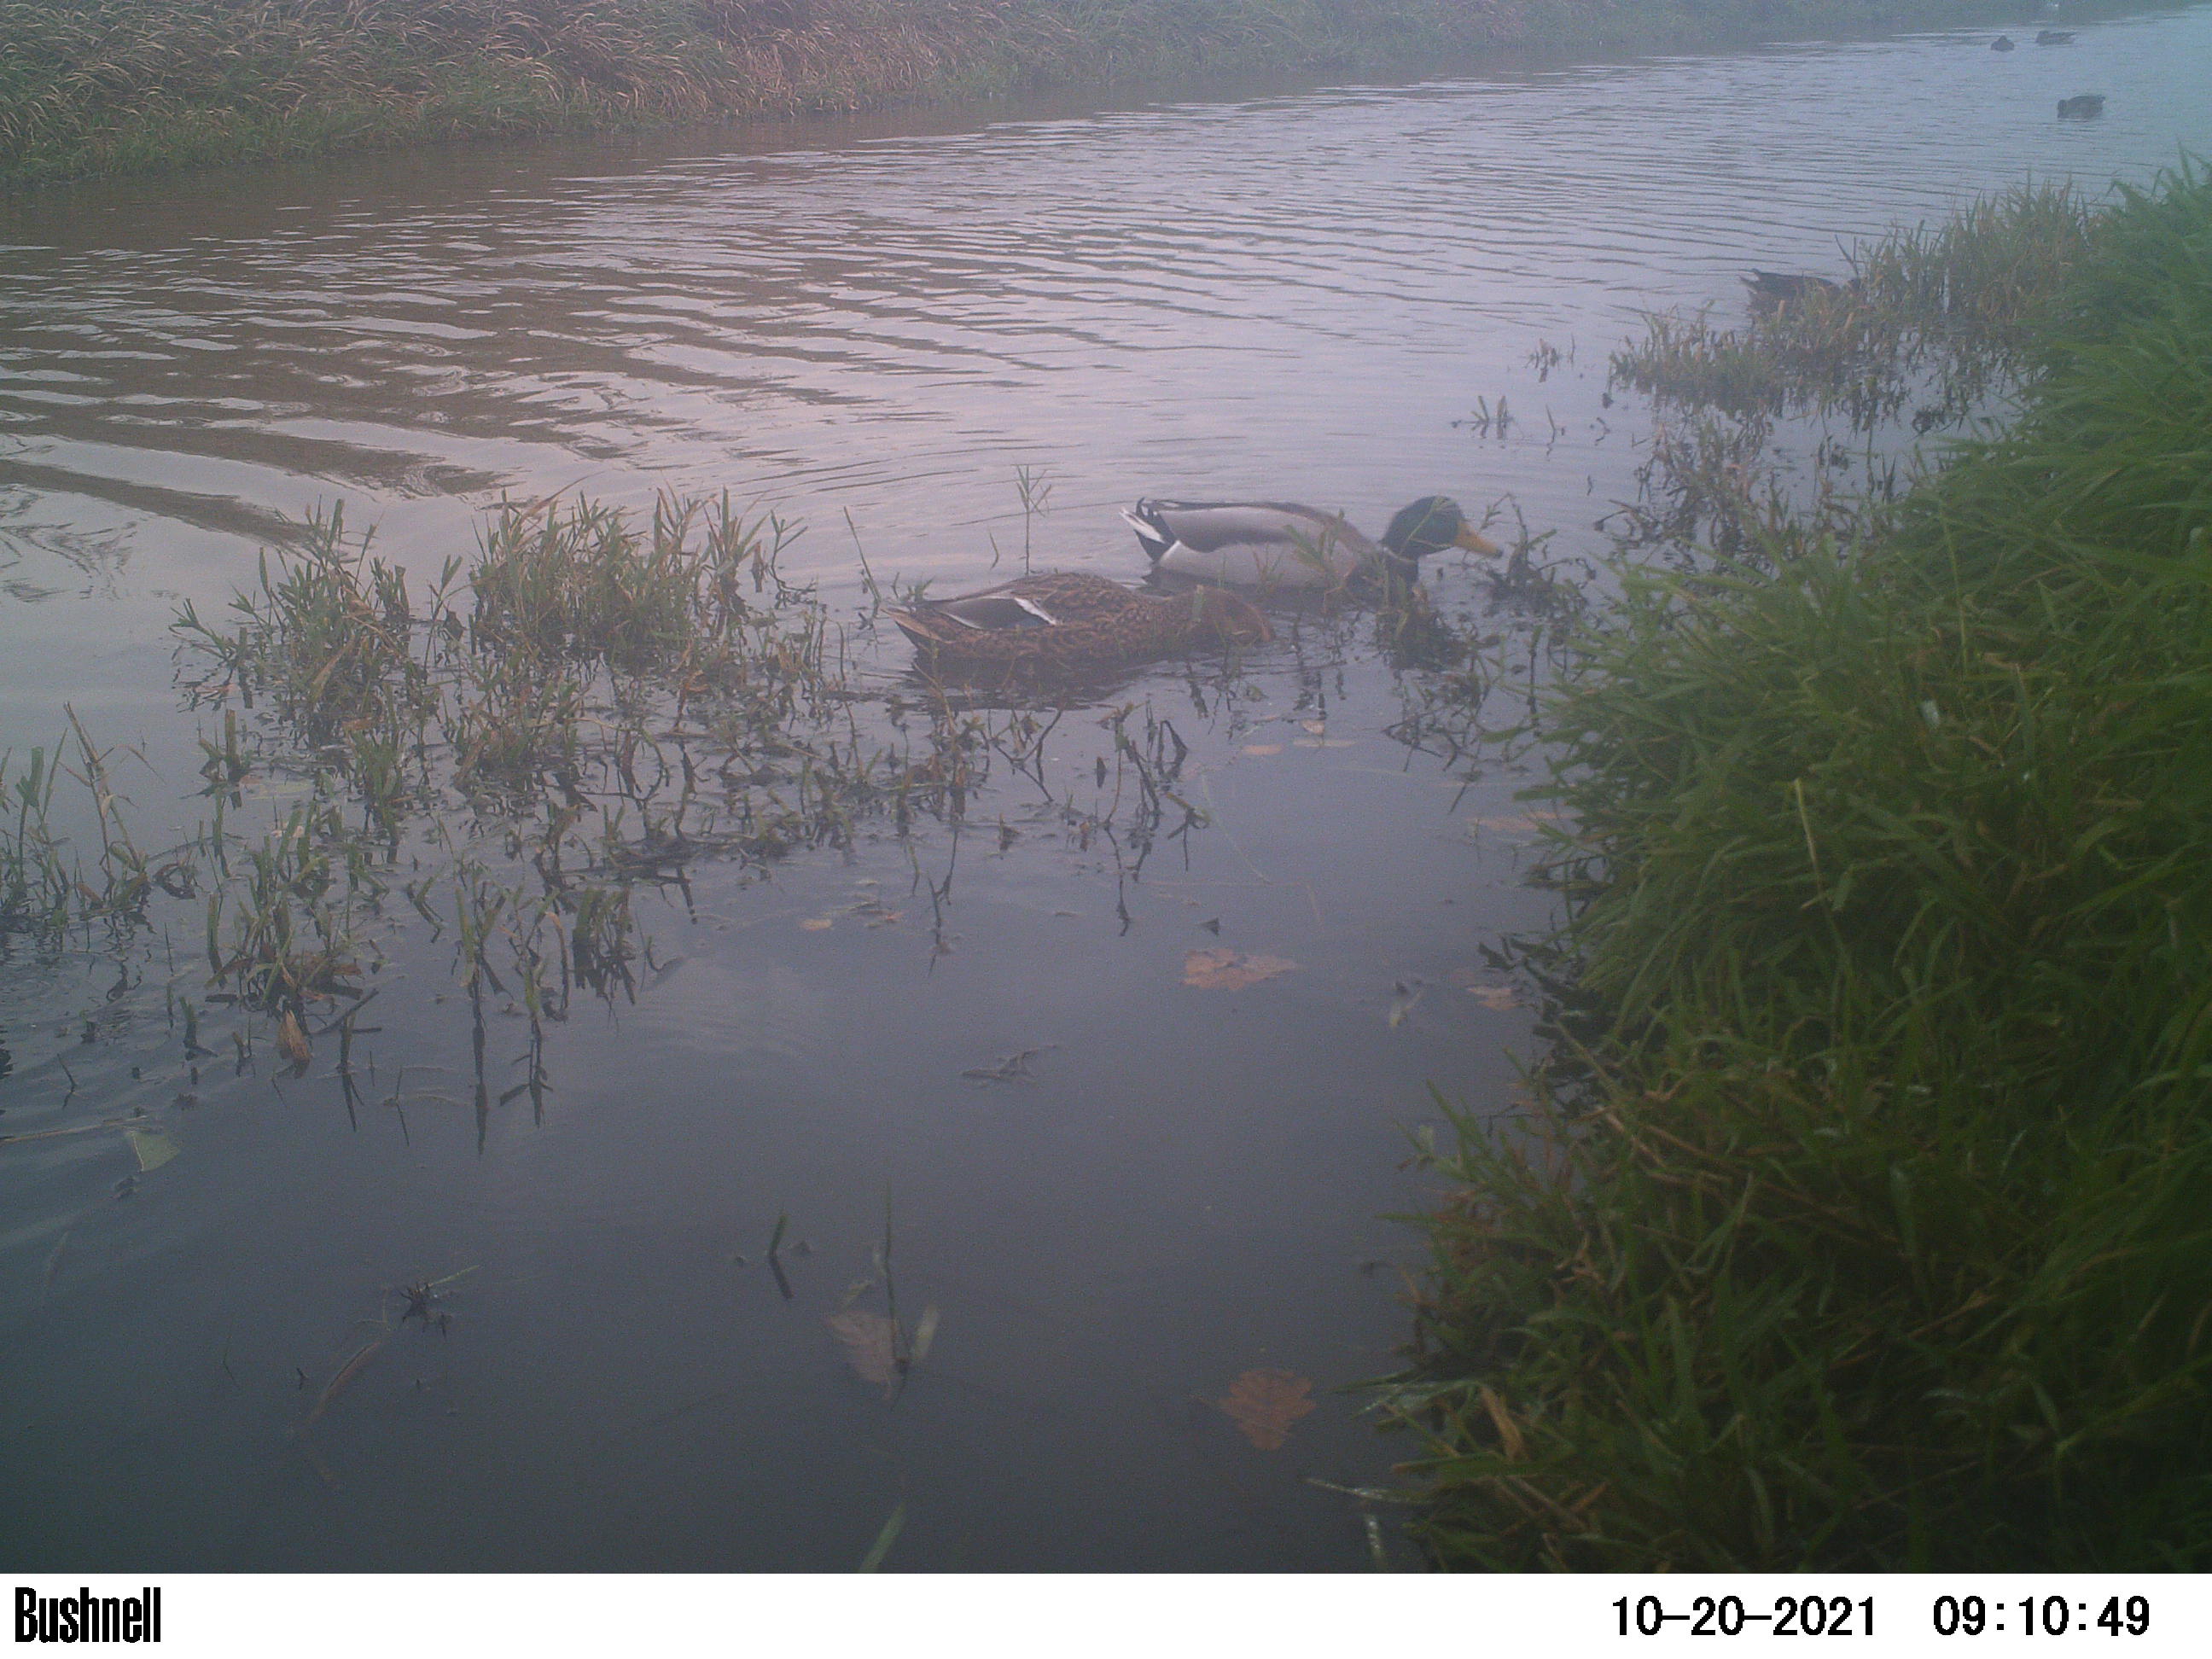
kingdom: Animalia
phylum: Chordata
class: Aves
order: Anseriformes
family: Anatidae
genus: Anas
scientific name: Anas
